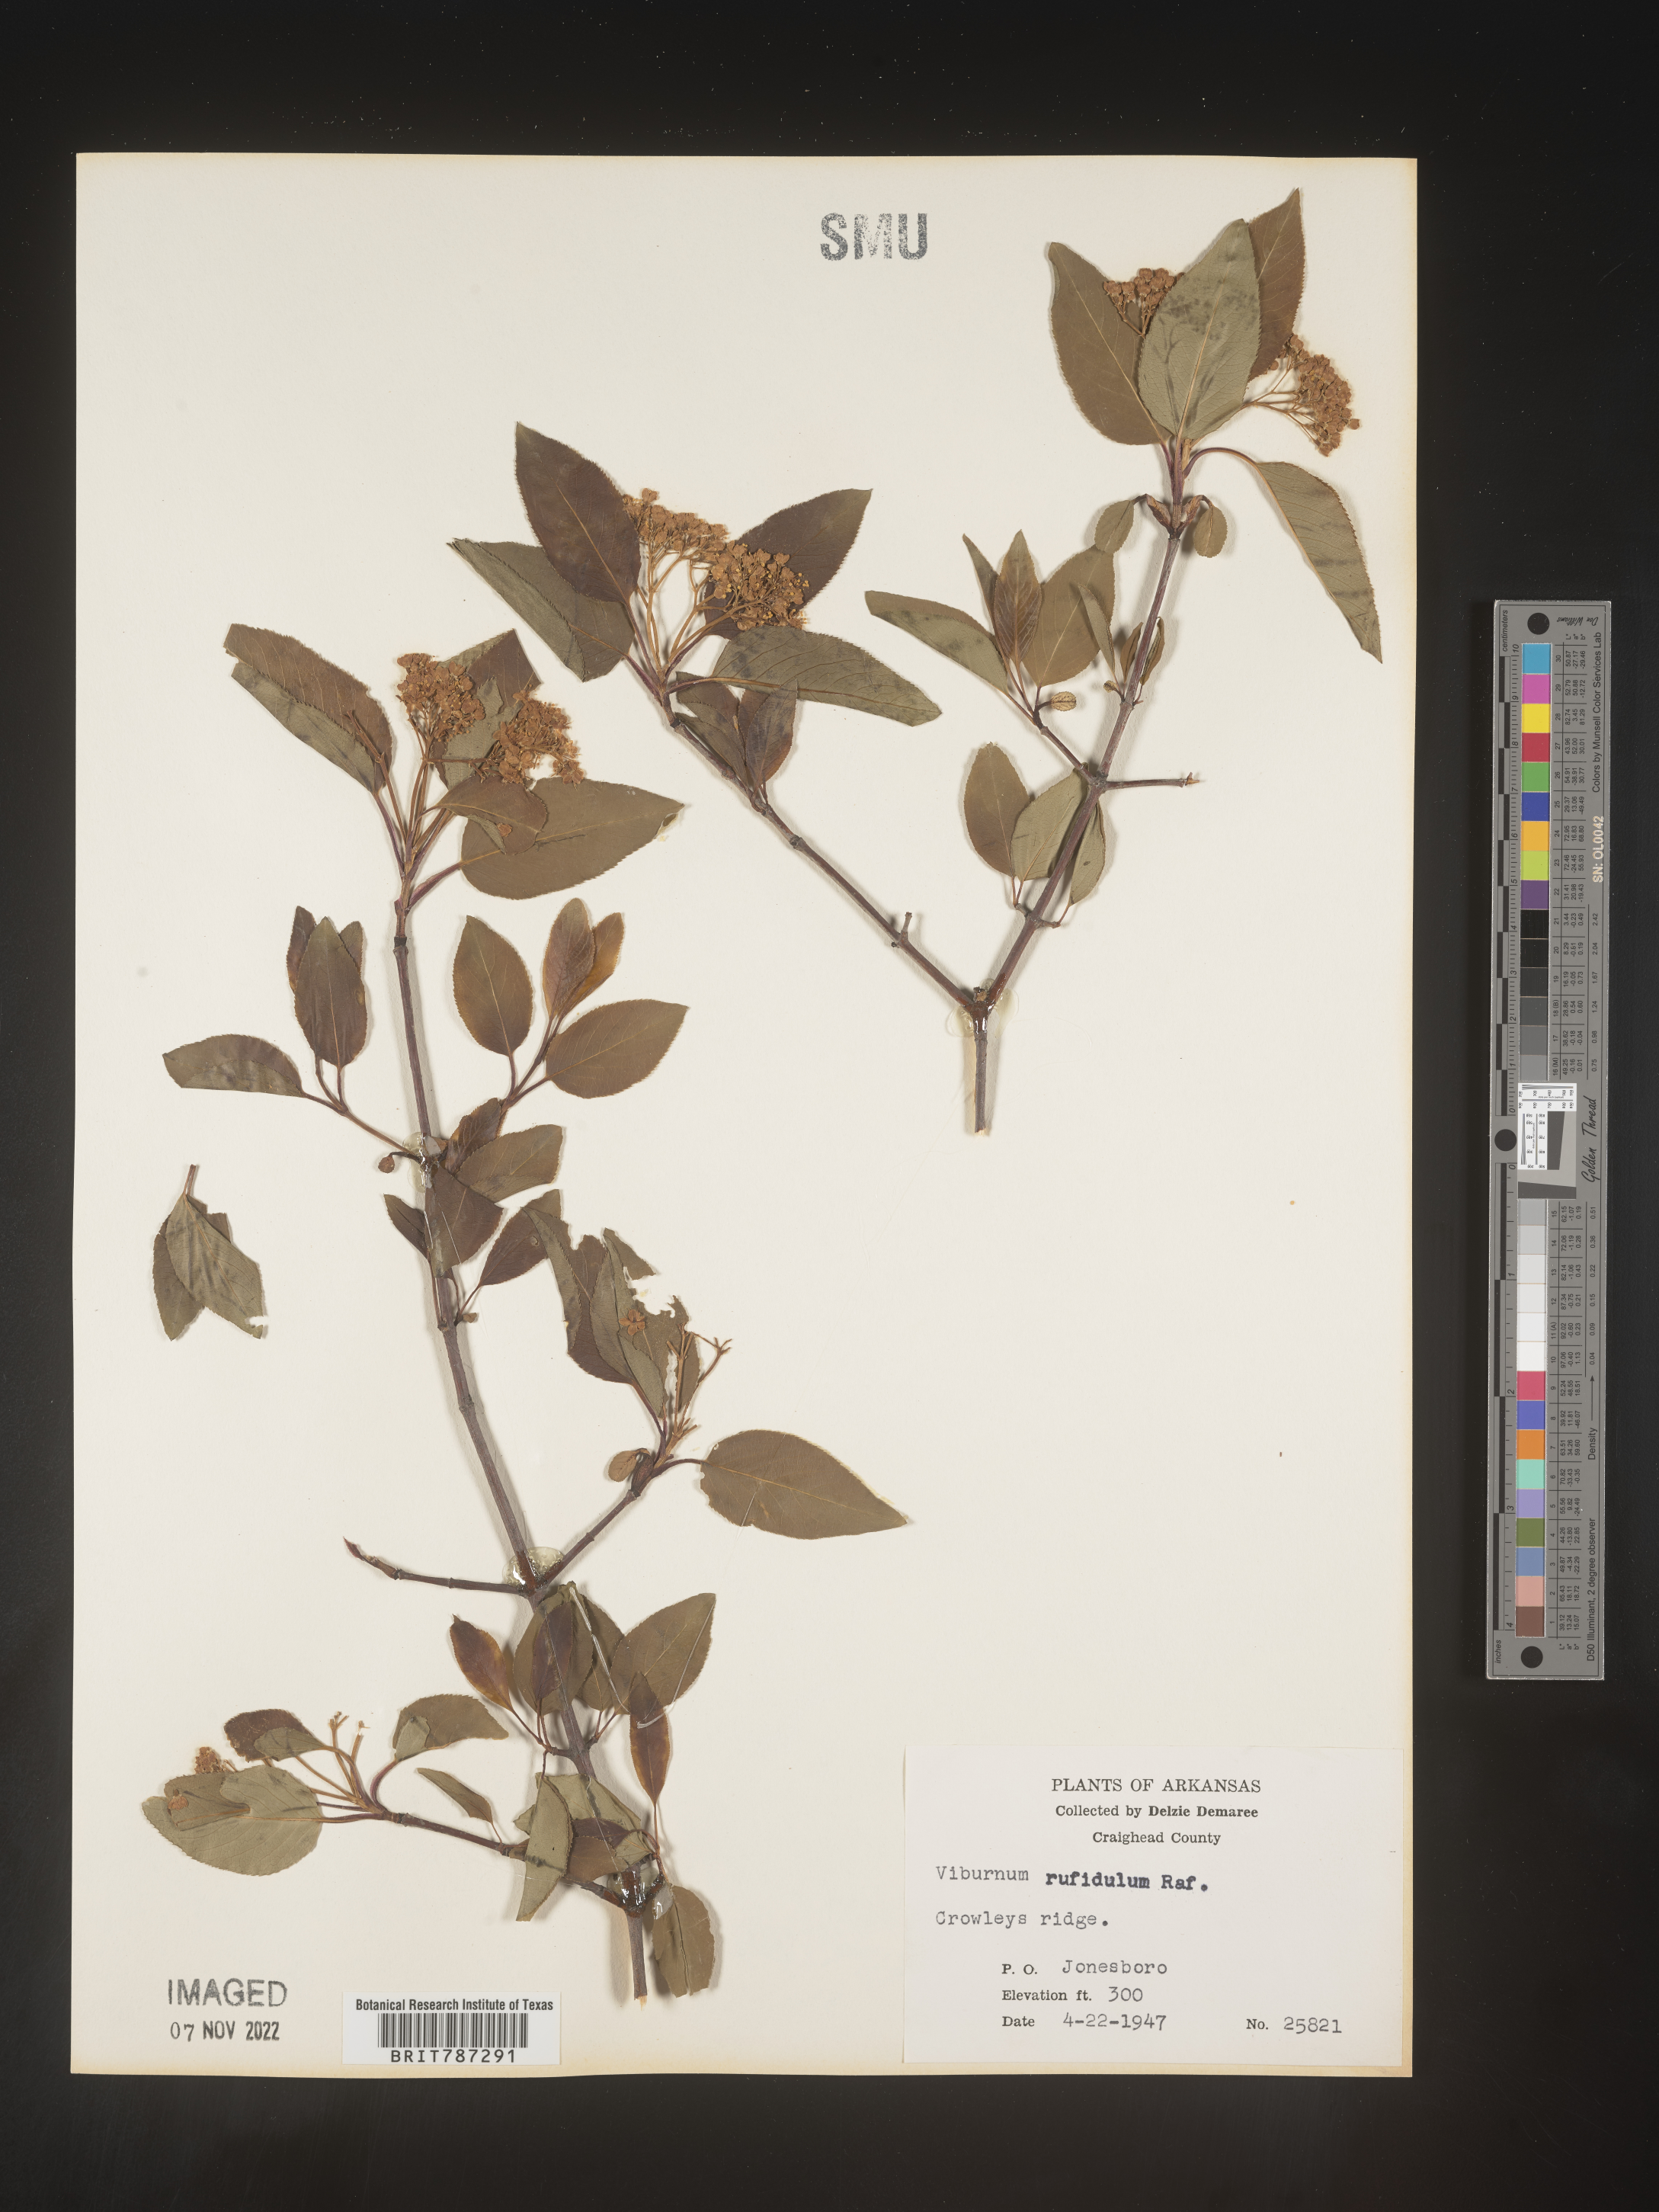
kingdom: Plantae
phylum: Tracheophyta
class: Magnoliopsida
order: Dipsacales
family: Viburnaceae
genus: Viburnum
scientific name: Viburnum rufidulum
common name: Blue haw
